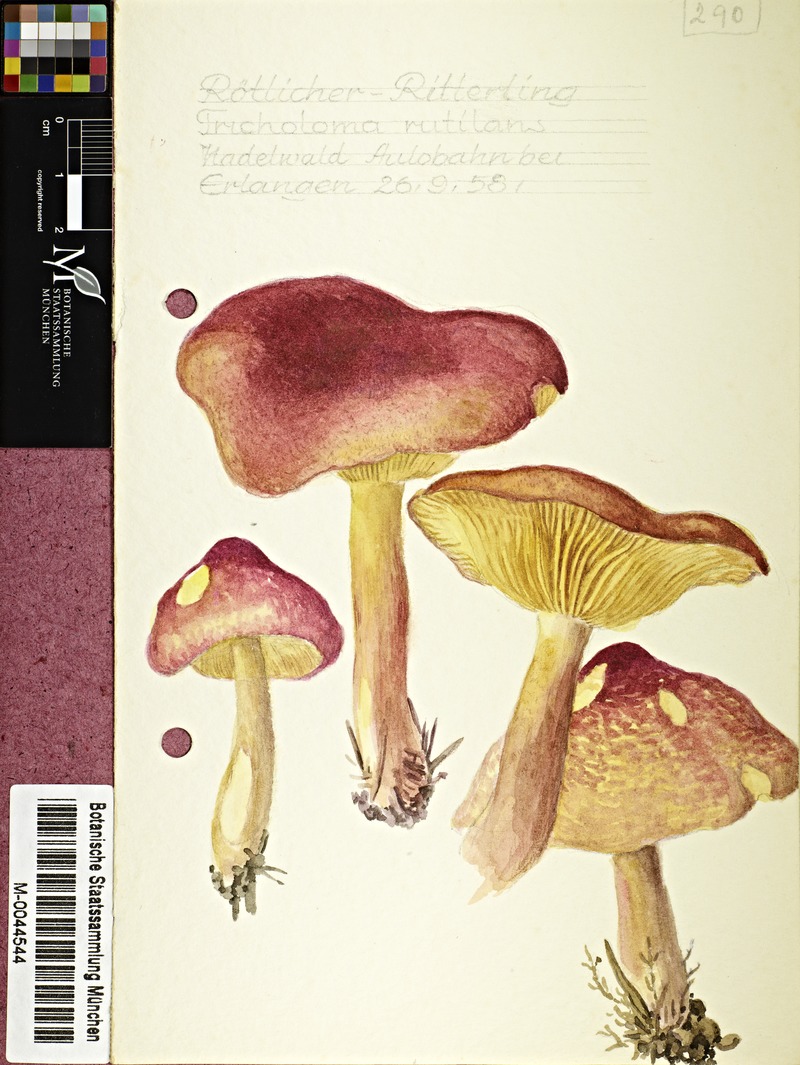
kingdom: Fungi
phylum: Basidiomycota
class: Agaricomycetes
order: Agaricales
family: Tricholomataceae
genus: Tricholomopsis
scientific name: Tricholomopsis rutilans
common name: Plums and custard
